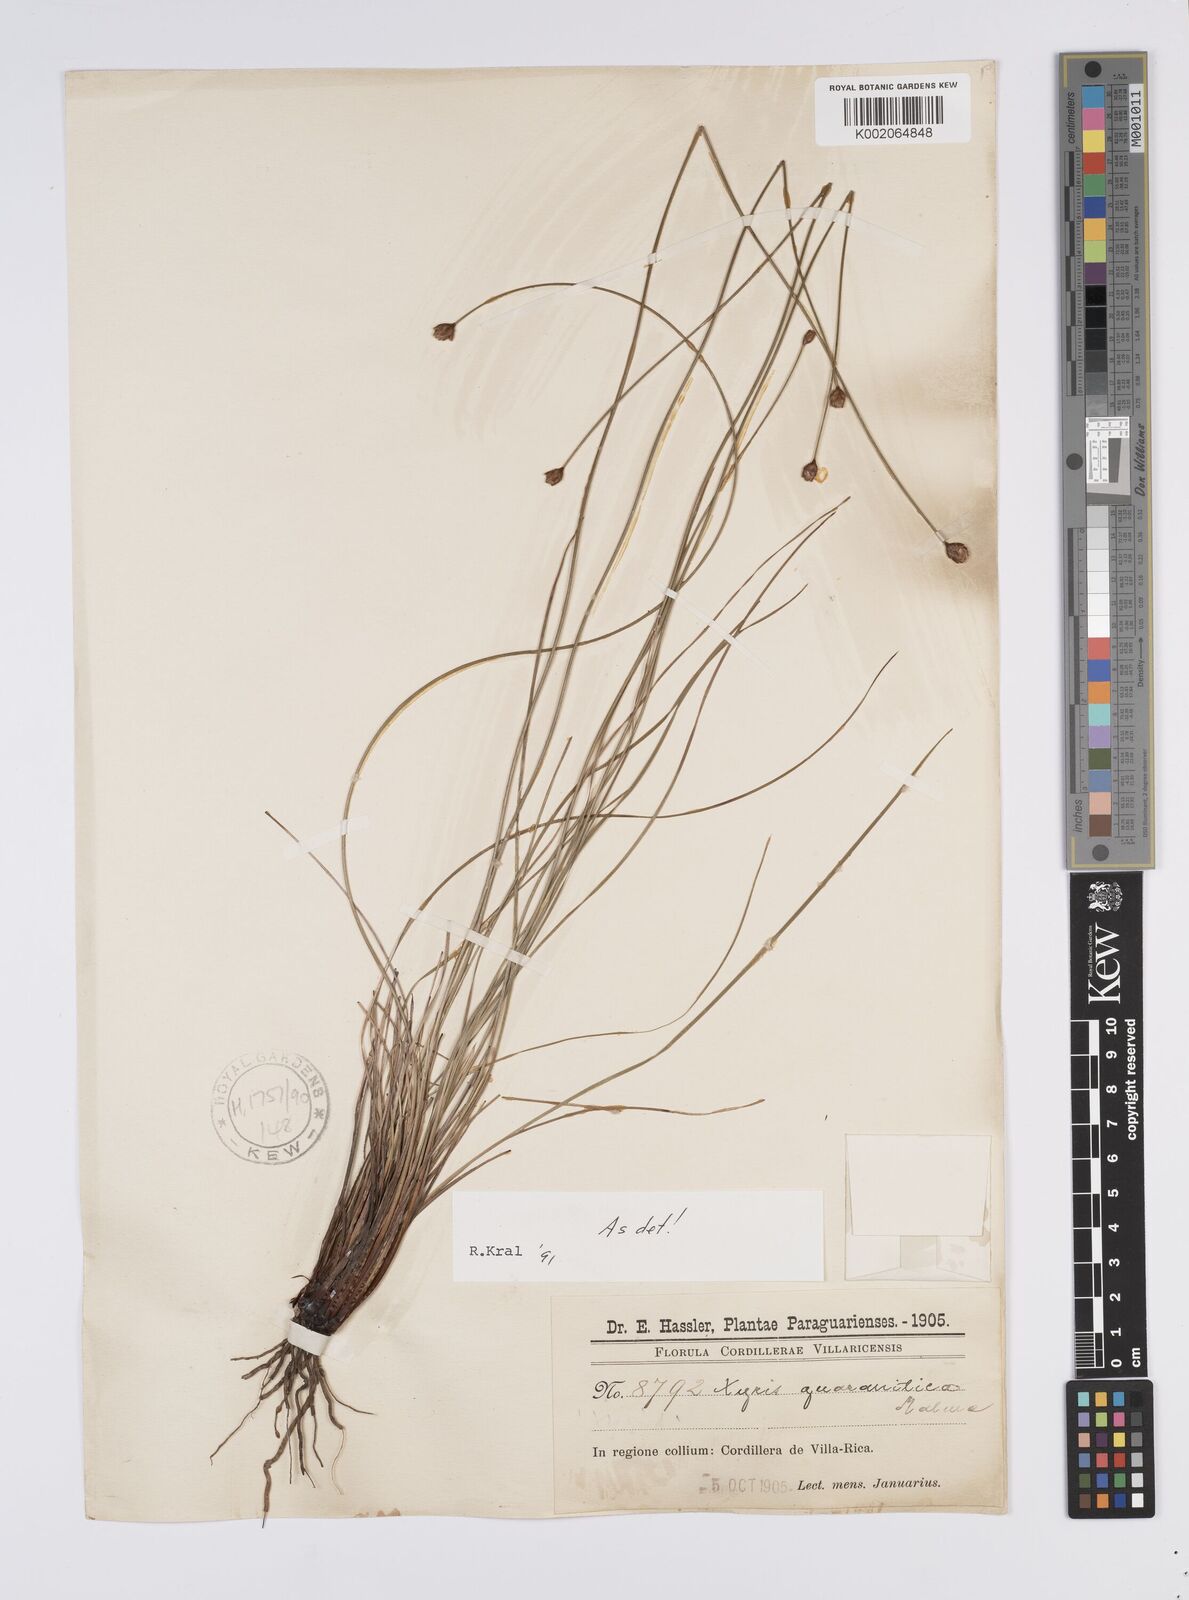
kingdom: Plantae
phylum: Tracheophyta
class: Liliopsida
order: Poales
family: Xyridaceae
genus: Xyris
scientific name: Xyris guaranitica
